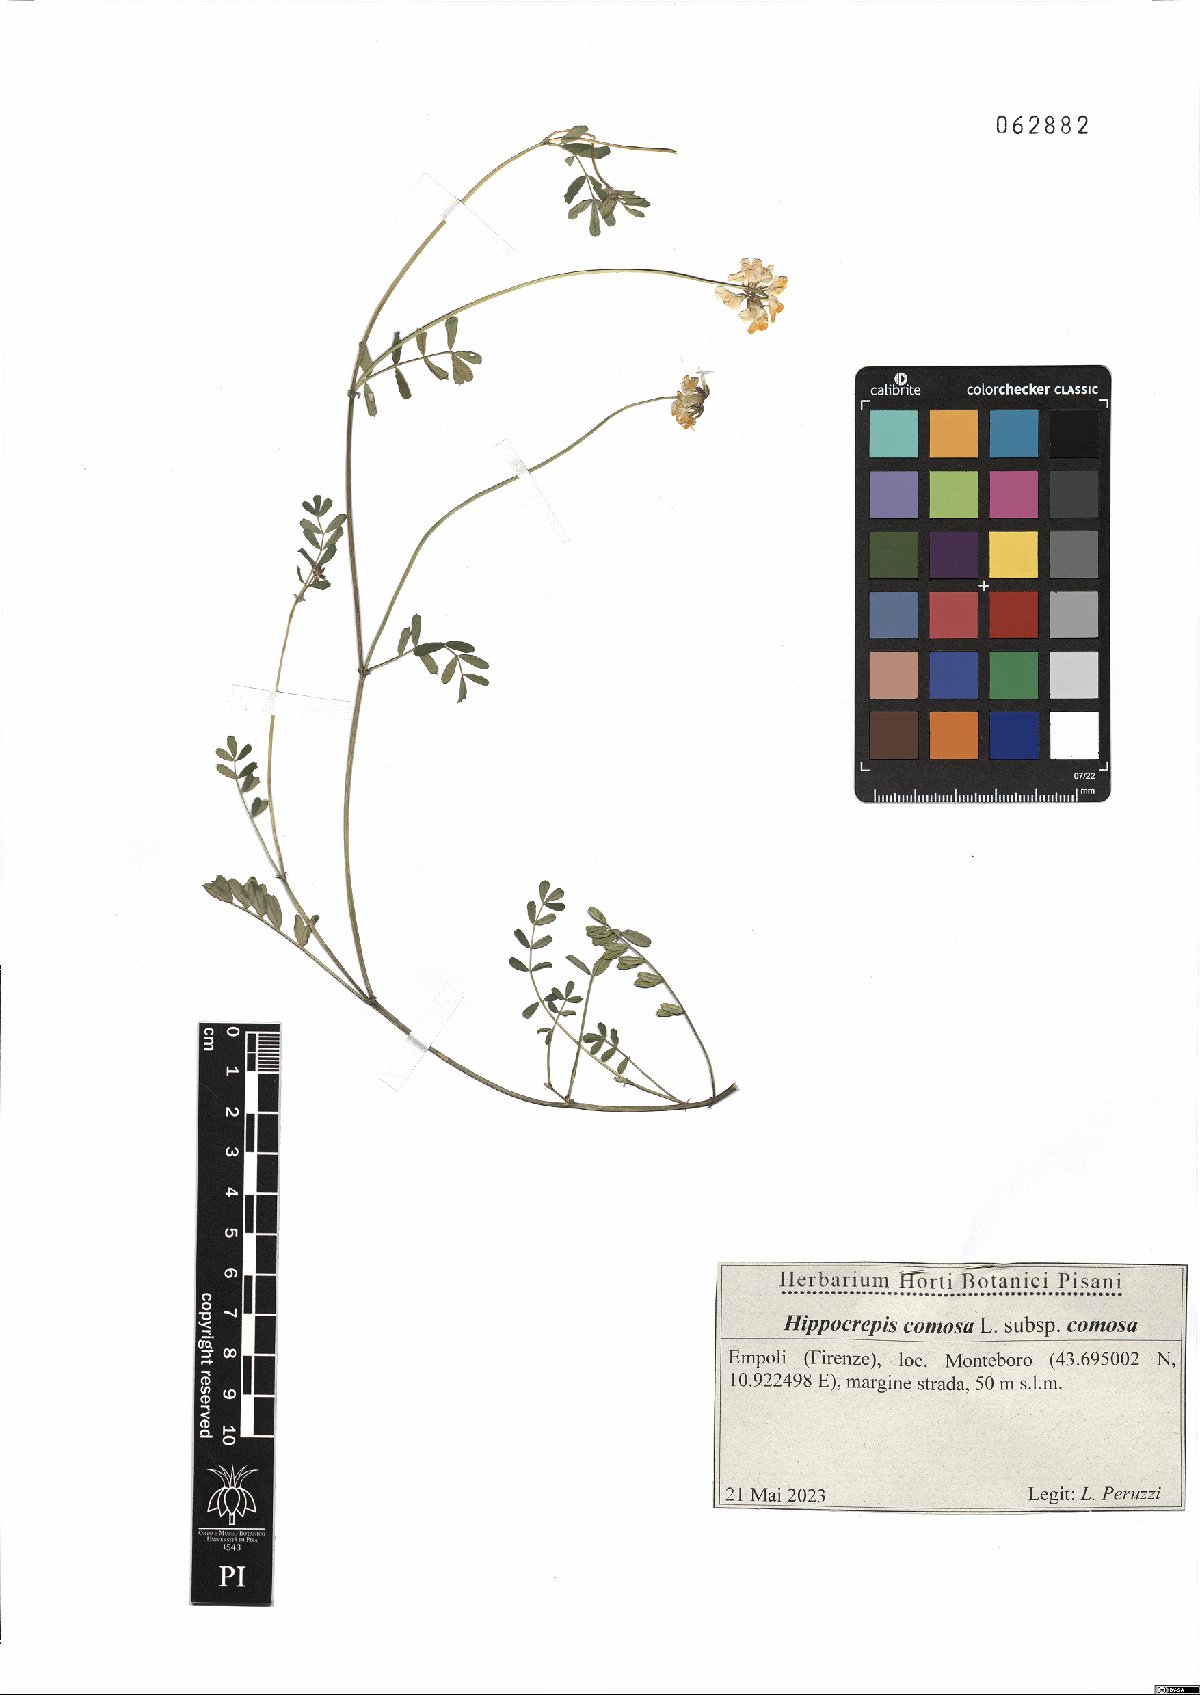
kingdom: Plantae
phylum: Tracheophyta
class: Magnoliopsida
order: Fabales
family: Fabaceae
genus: Hippocrepis
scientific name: Hippocrepis comosa
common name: Horseshoe vetch
